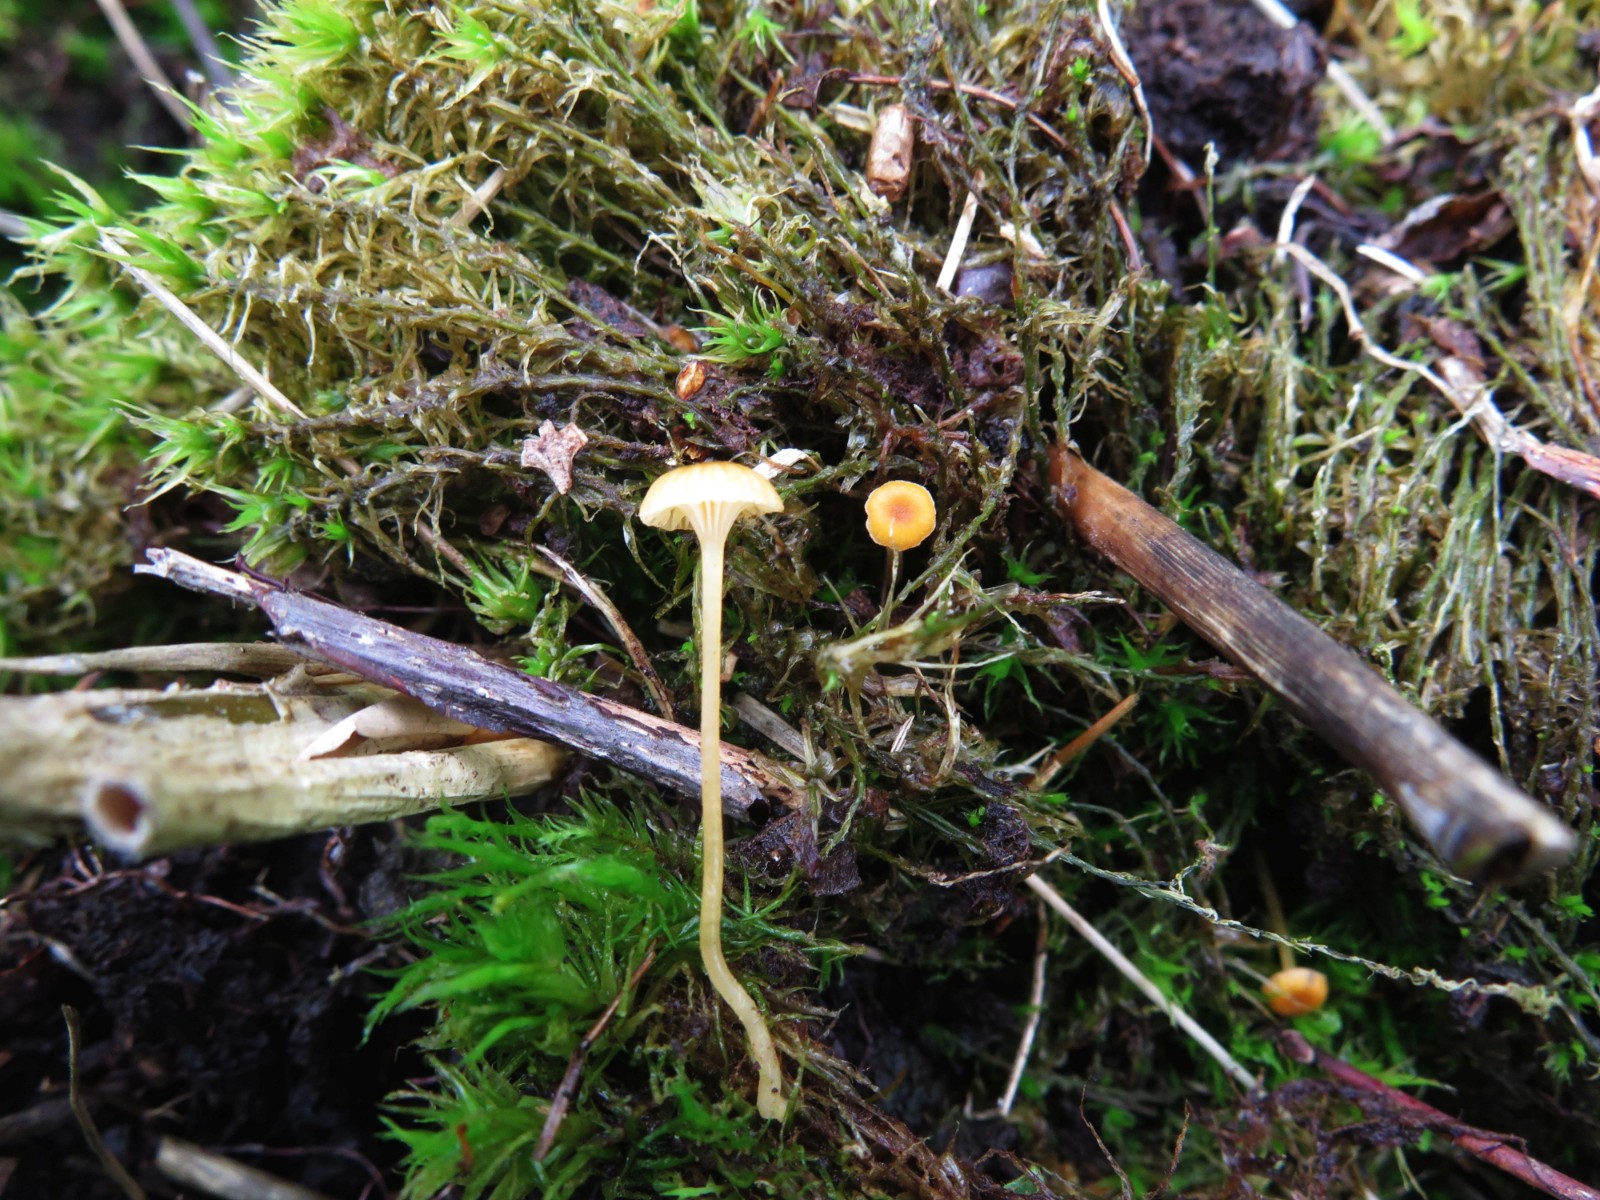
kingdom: Fungi
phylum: Basidiomycota
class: Agaricomycetes
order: Hymenochaetales
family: Rickenellaceae
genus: Rickenella
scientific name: Rickenella fibula
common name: orange mosnavlehat
